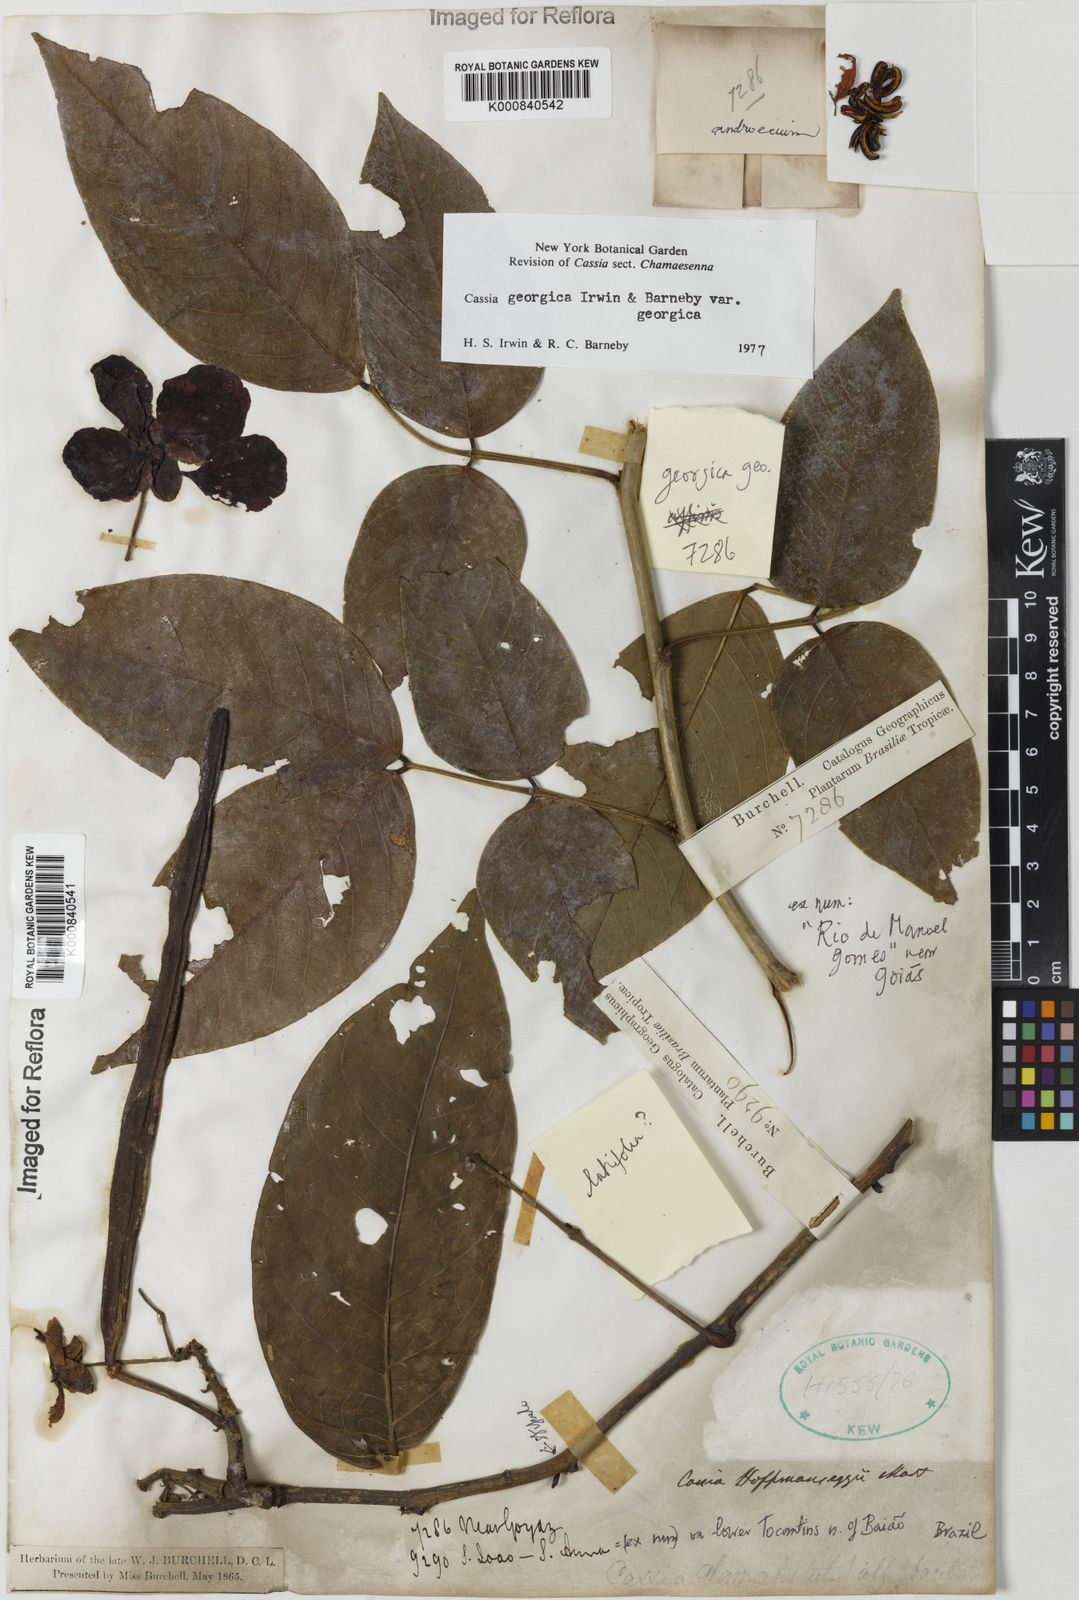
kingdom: Plantae
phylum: Tracheophyta
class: Magnoliopsida
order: Fabales
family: Fabaceae
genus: Senna
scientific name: Senna georgica
